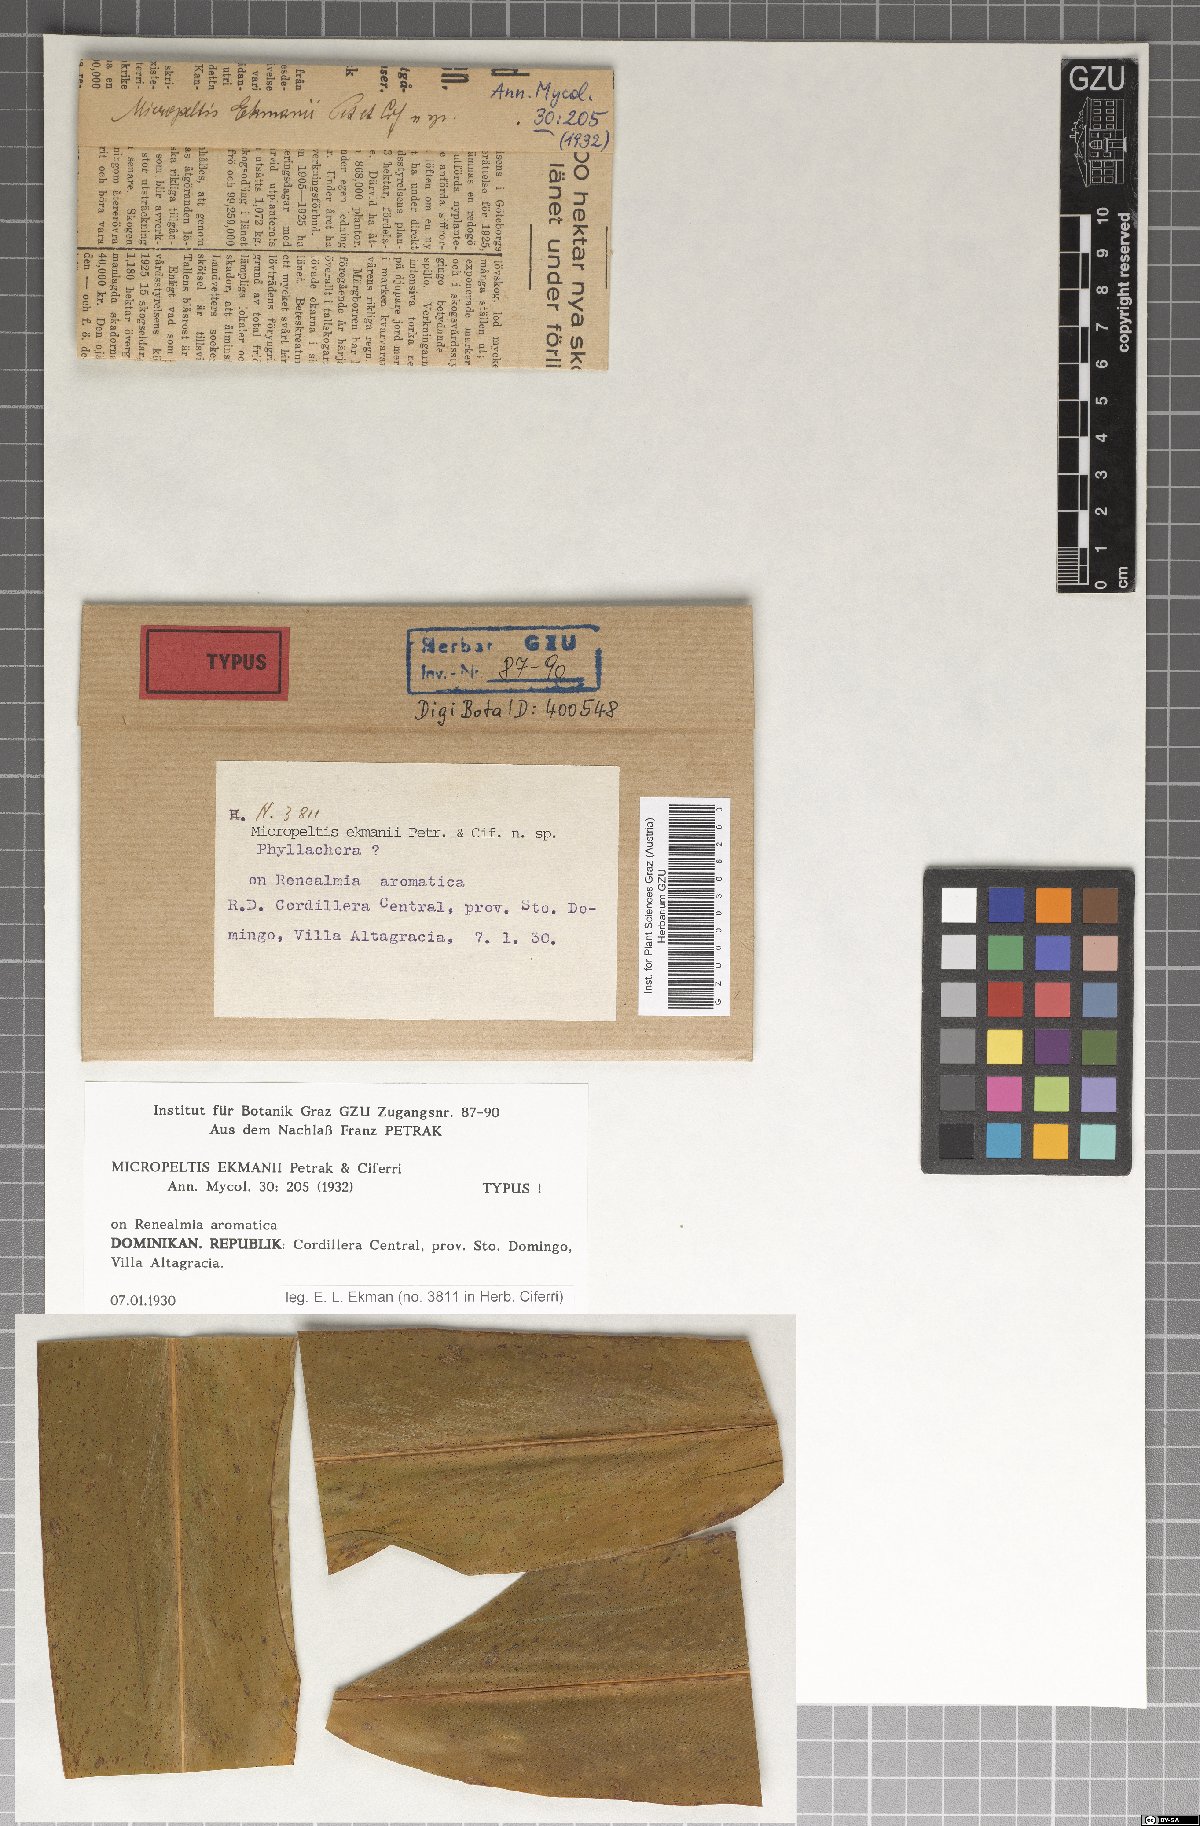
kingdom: Fungi
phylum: Ascomycota
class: Dothideomycetes
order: Microthyriales
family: Micropeltidaceae
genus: Micropeltis
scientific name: Micropeltis ekmanii
